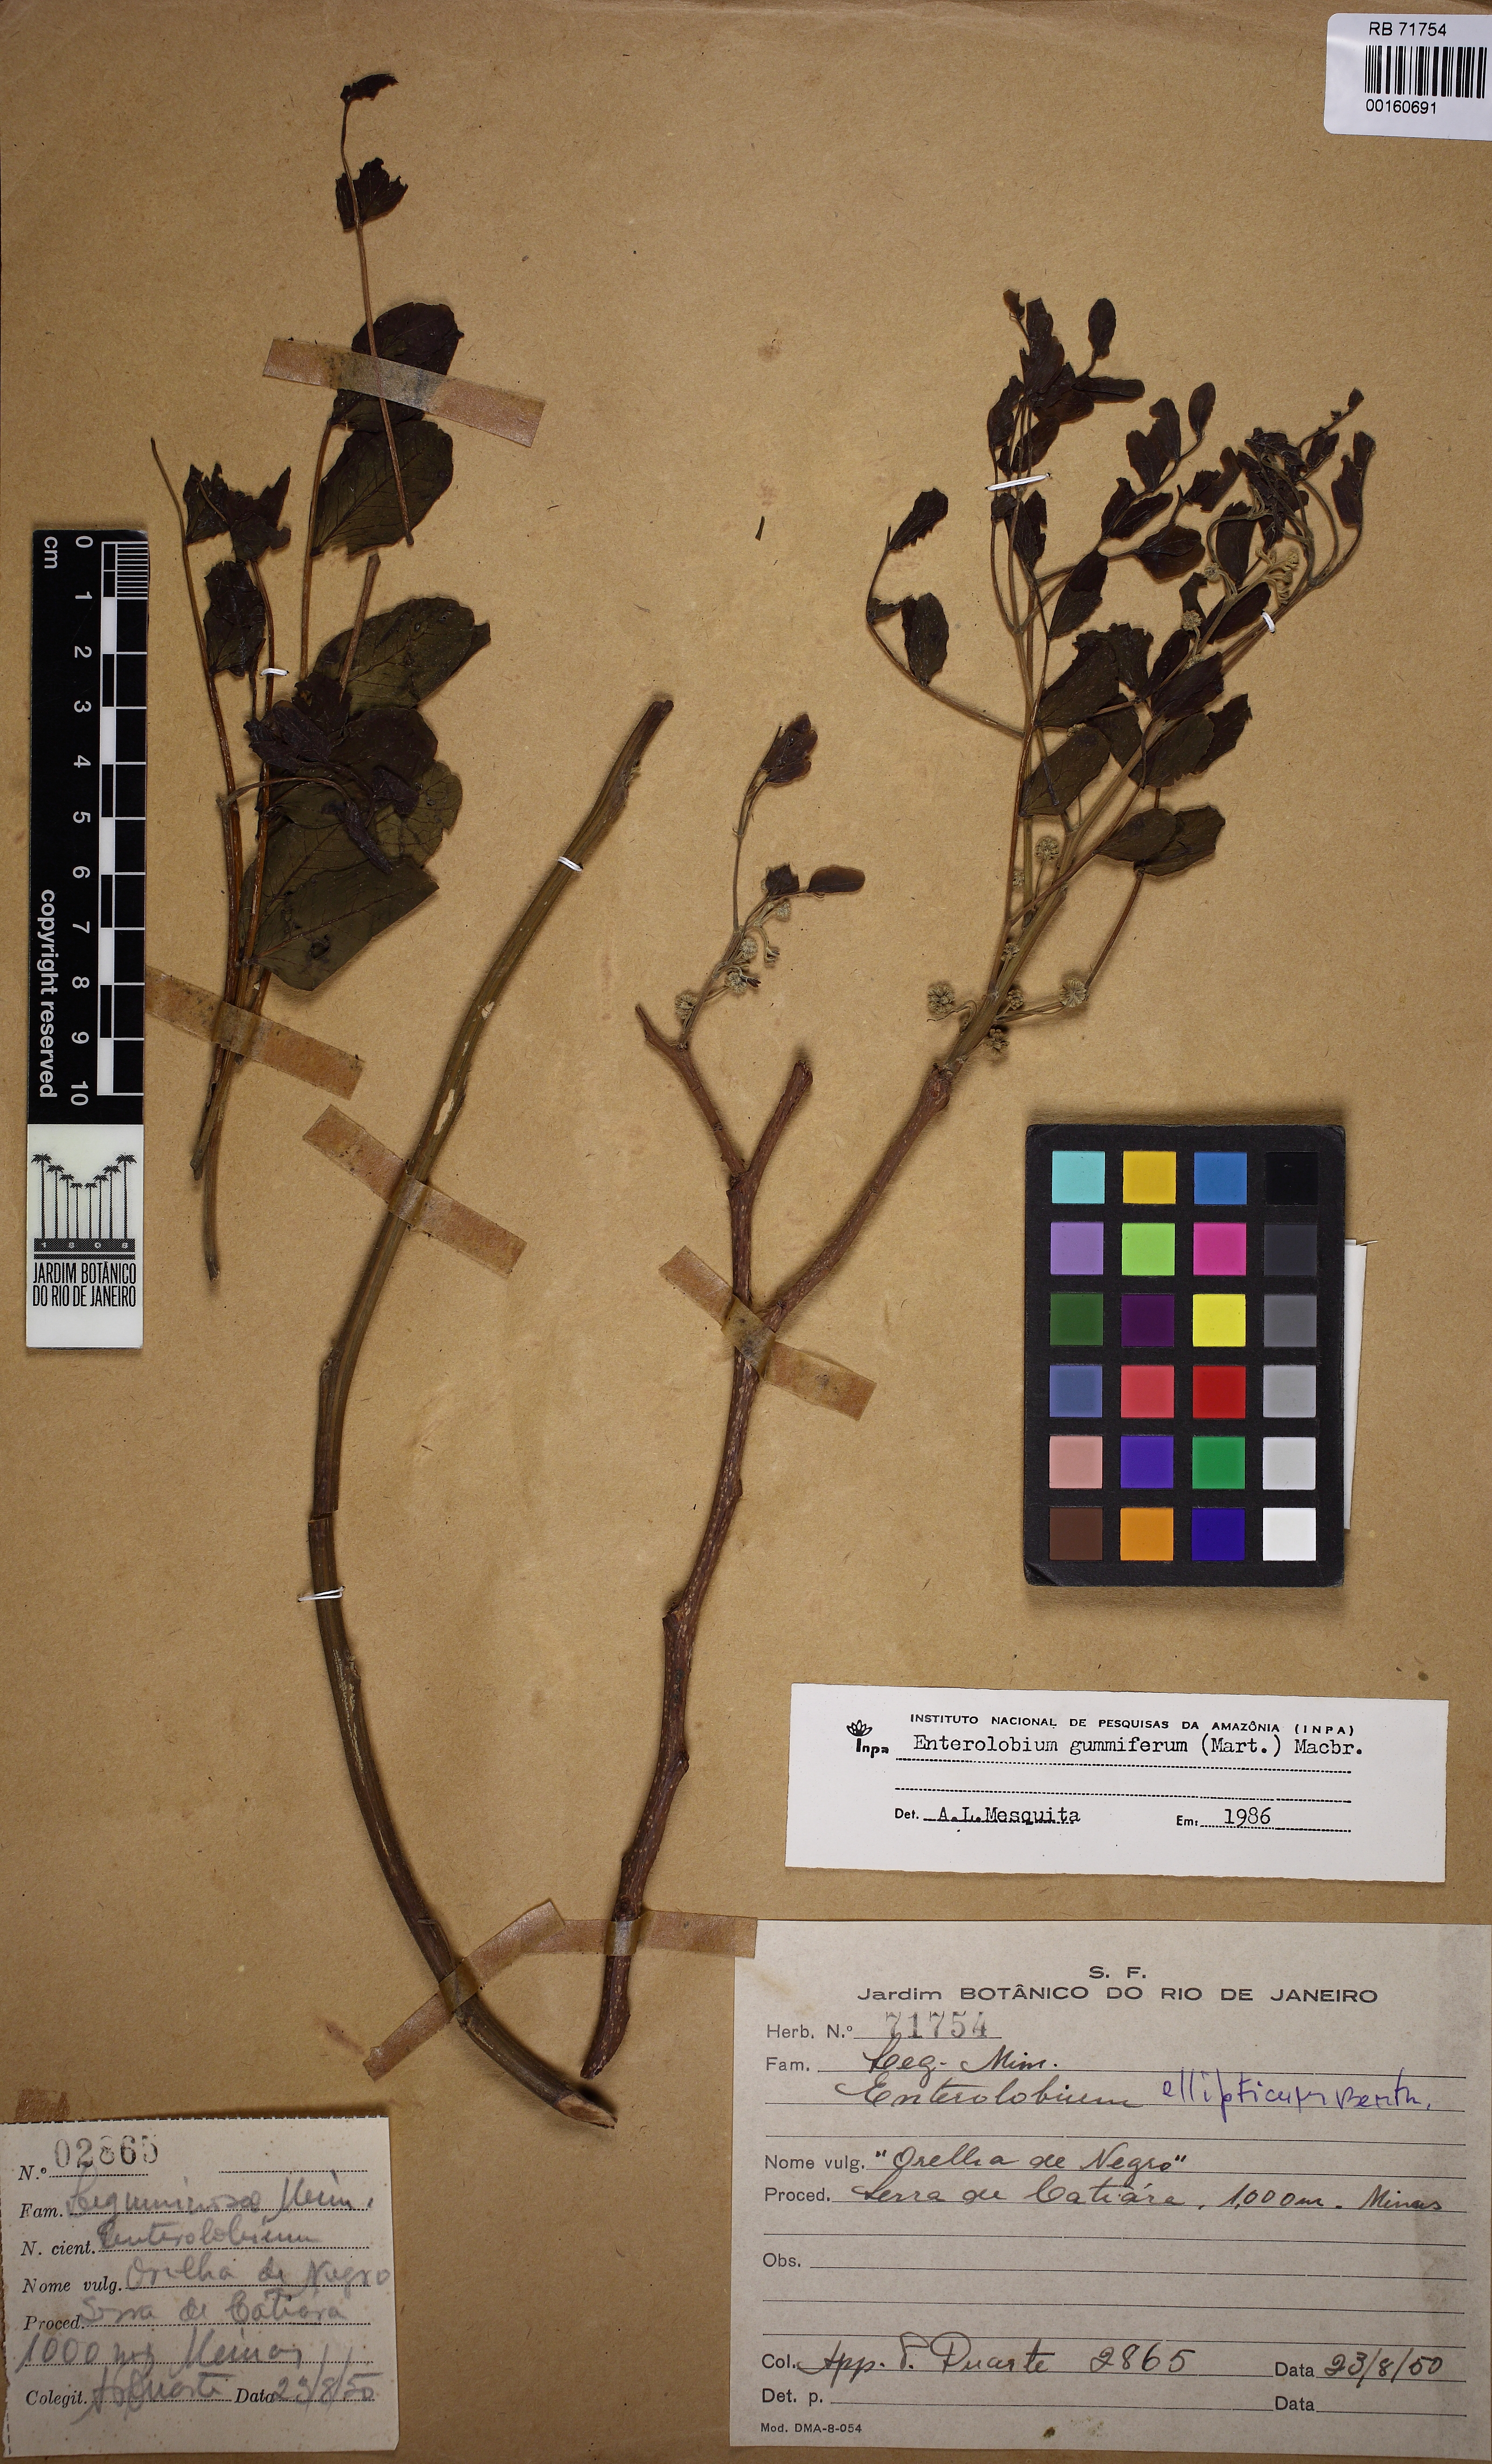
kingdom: Plantae
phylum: Tracheophyta
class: Magnoliopsida
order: Fabales
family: Fabaceae
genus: Enterolobium
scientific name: Enterolobium gummiferum
